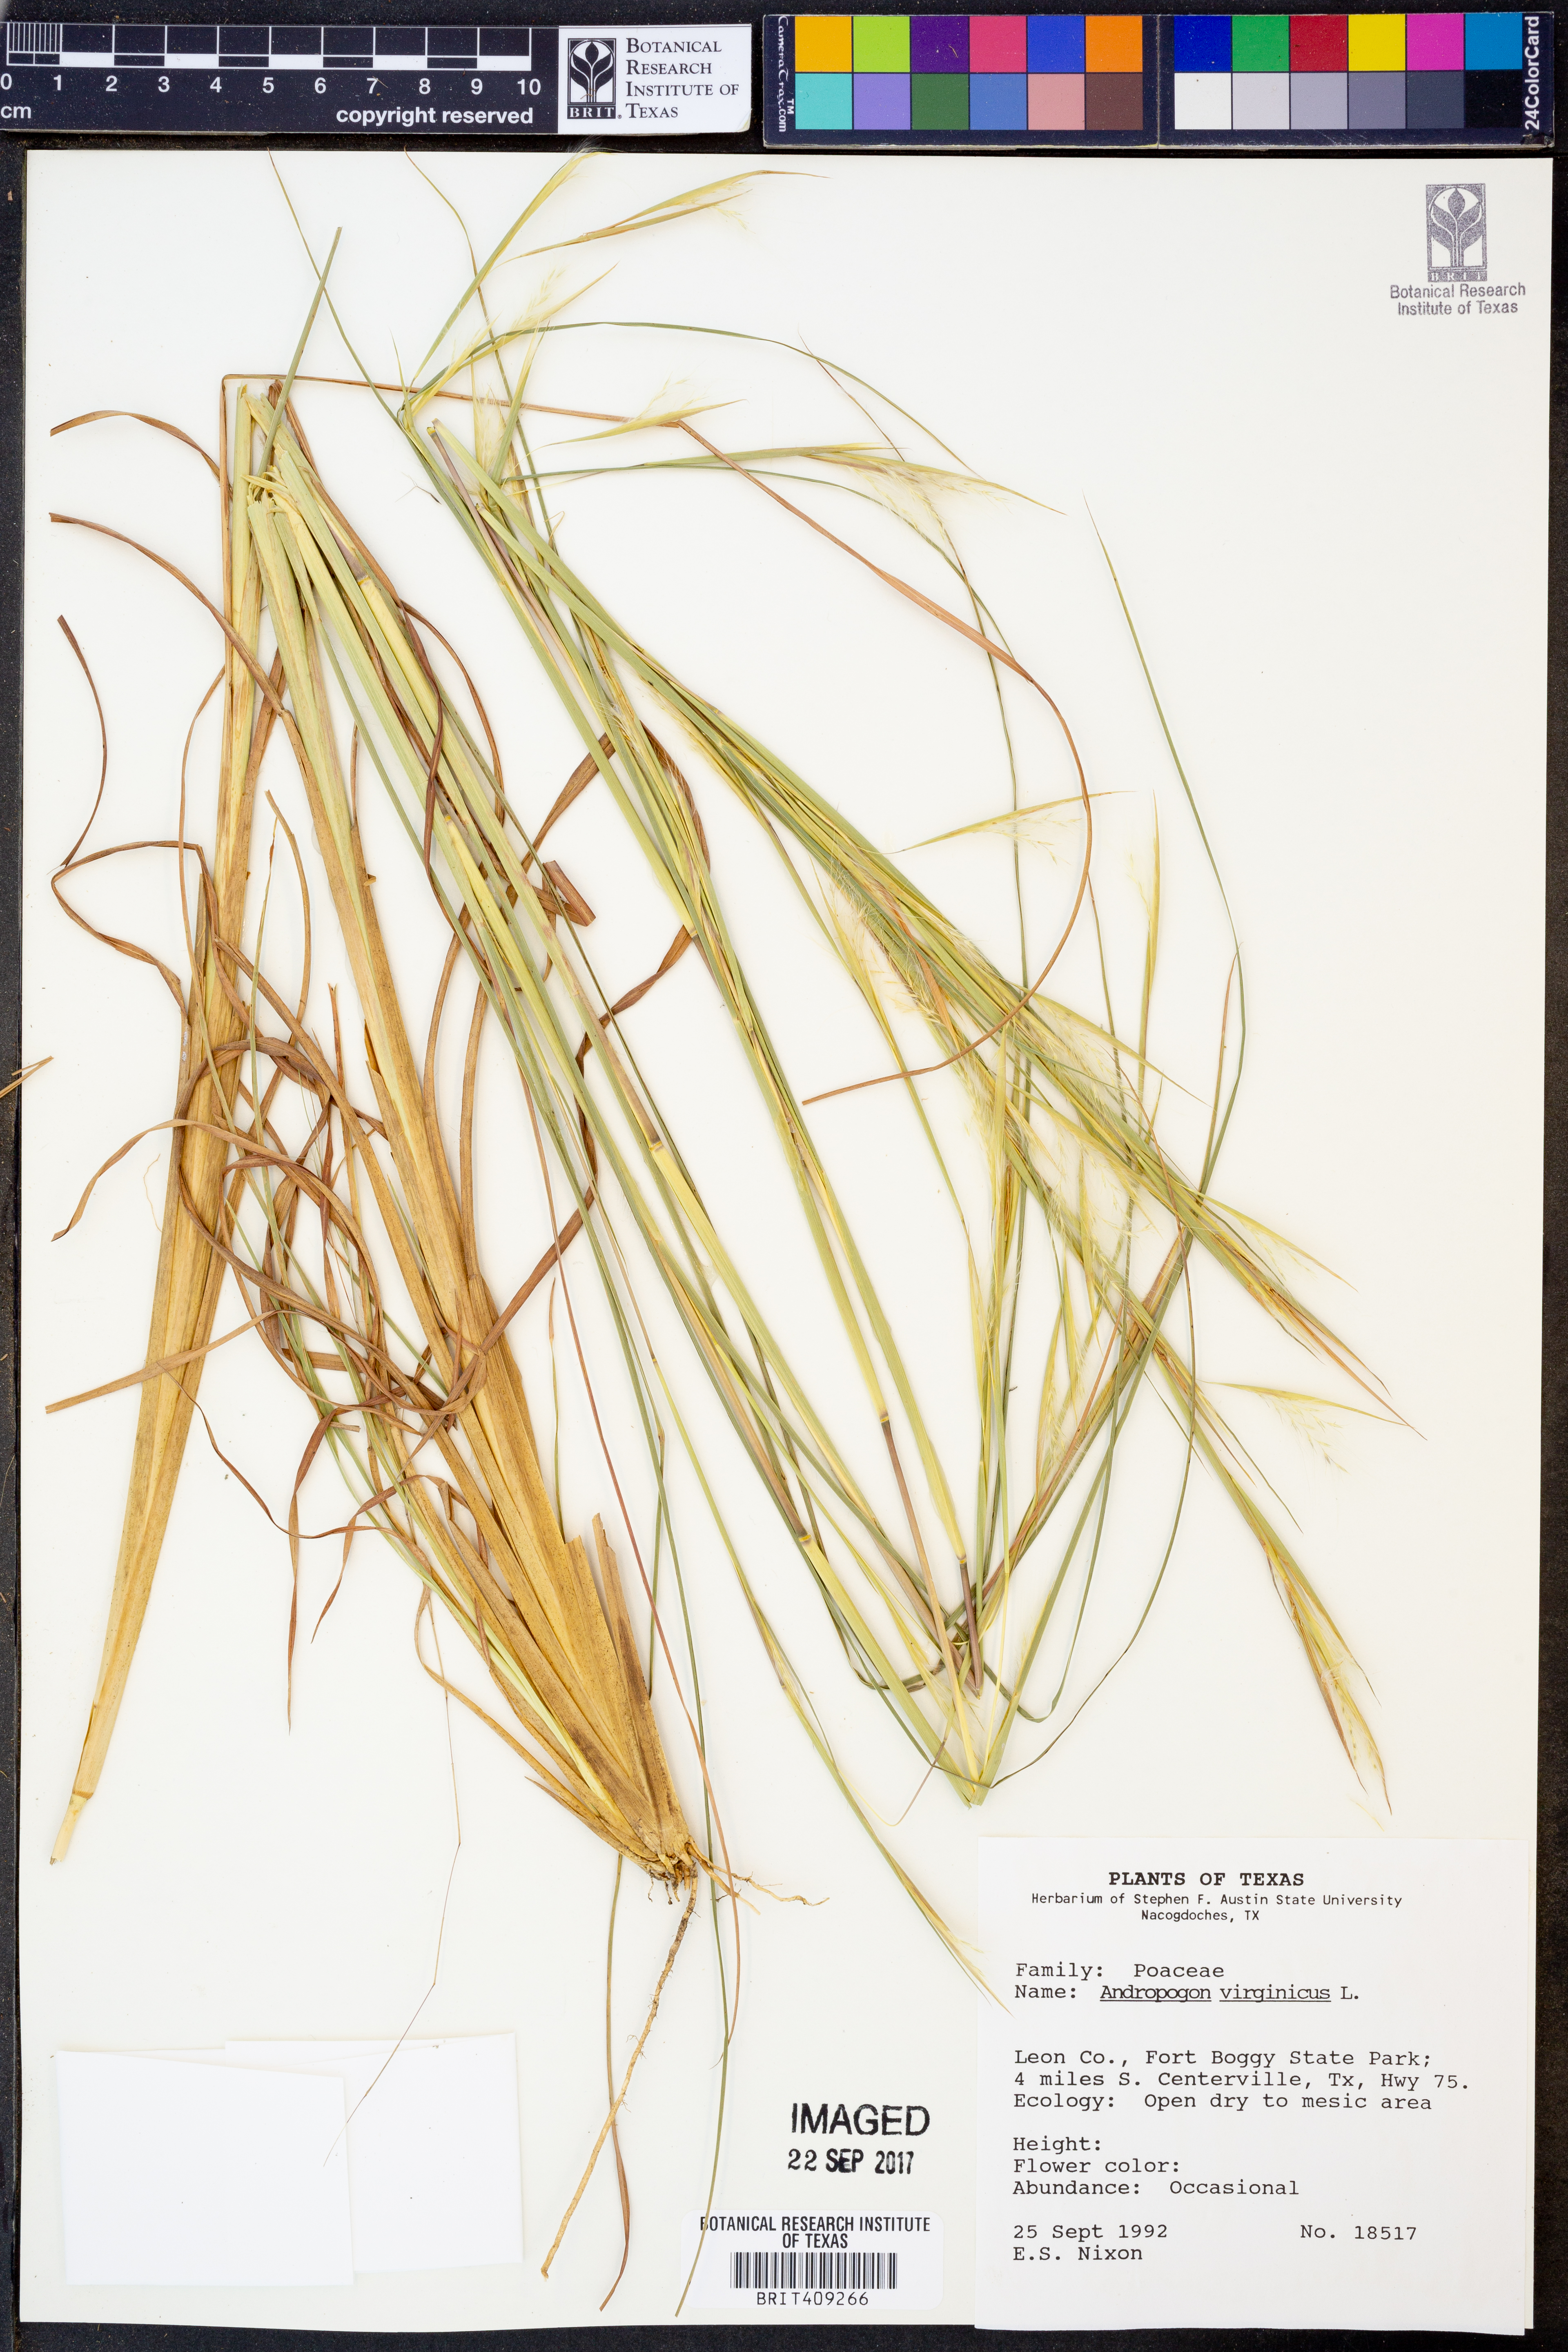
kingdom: Plantae
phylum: Tracheophyta
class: Liliopsida
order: Poales
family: Poaceae
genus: Andropogon
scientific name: Andropogon virginicus
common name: Broomsedge bluestem
